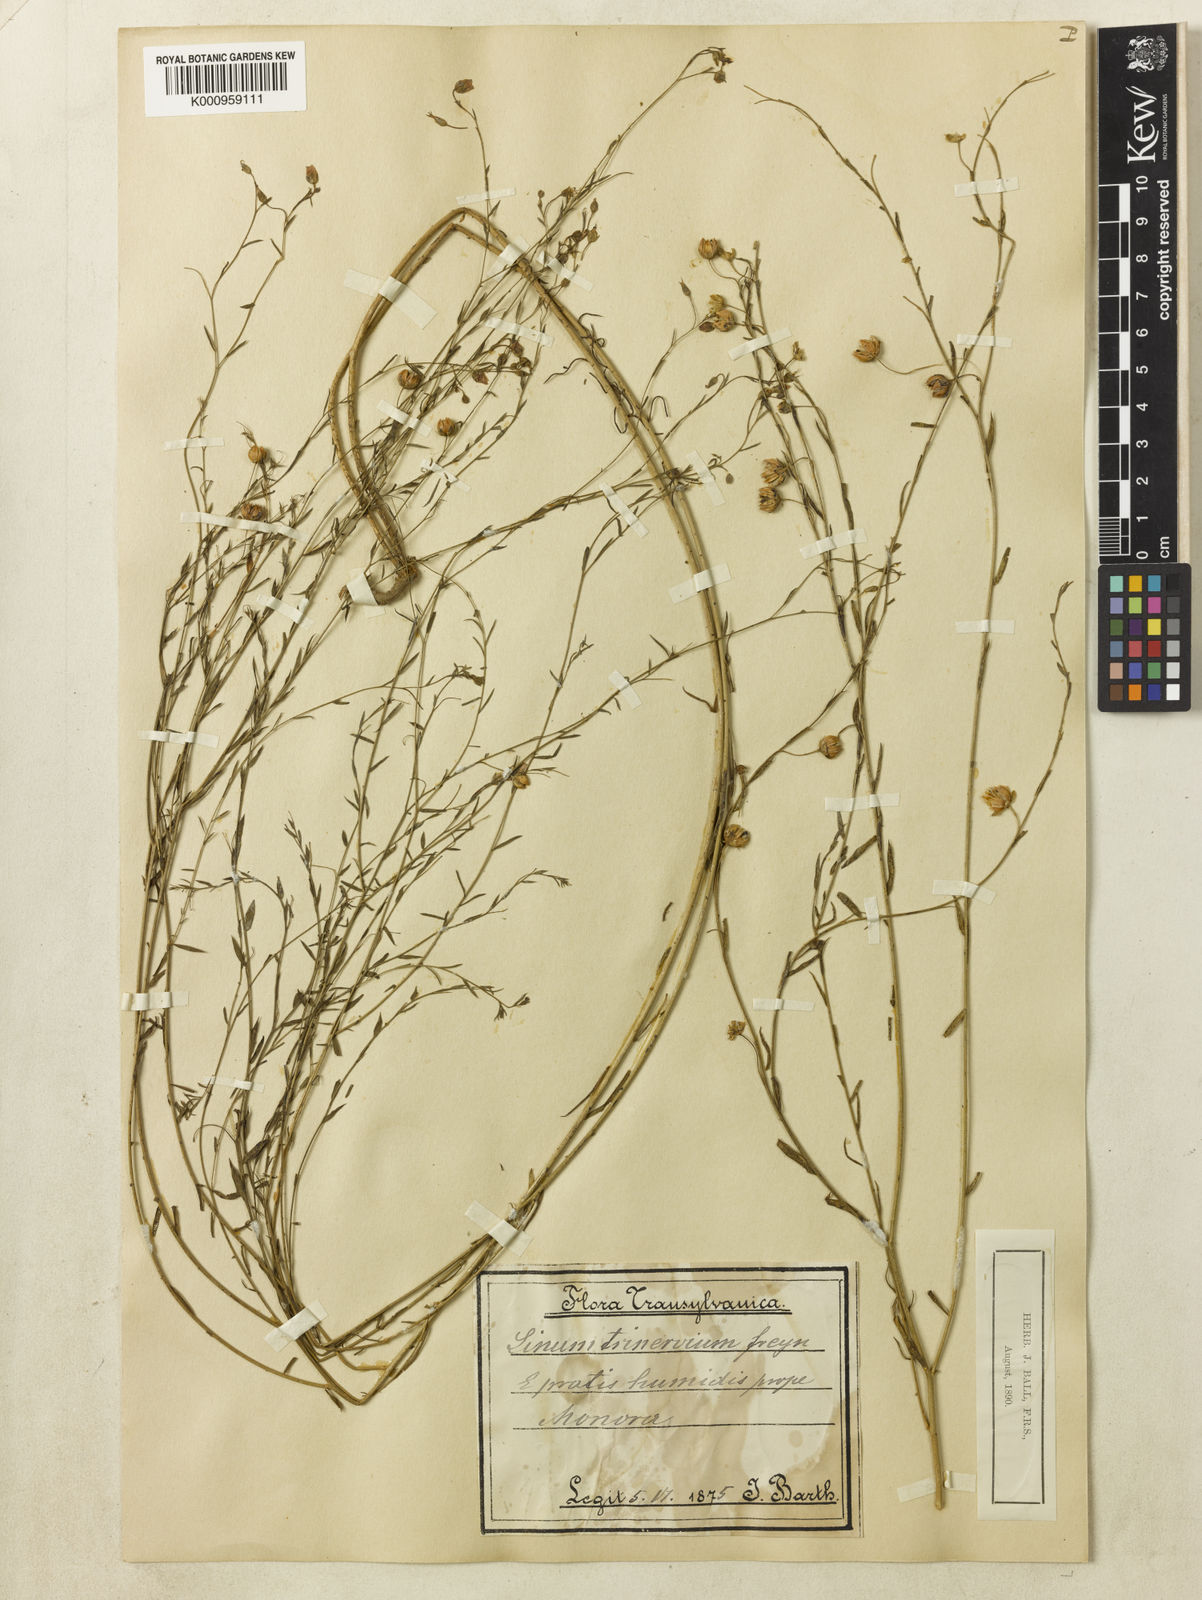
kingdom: Plantae
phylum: Tracheophyta
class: Magnoliopsida
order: Malpighiales
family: Linaceae
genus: Linum
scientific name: Linum austriacum
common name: Austrian flax
